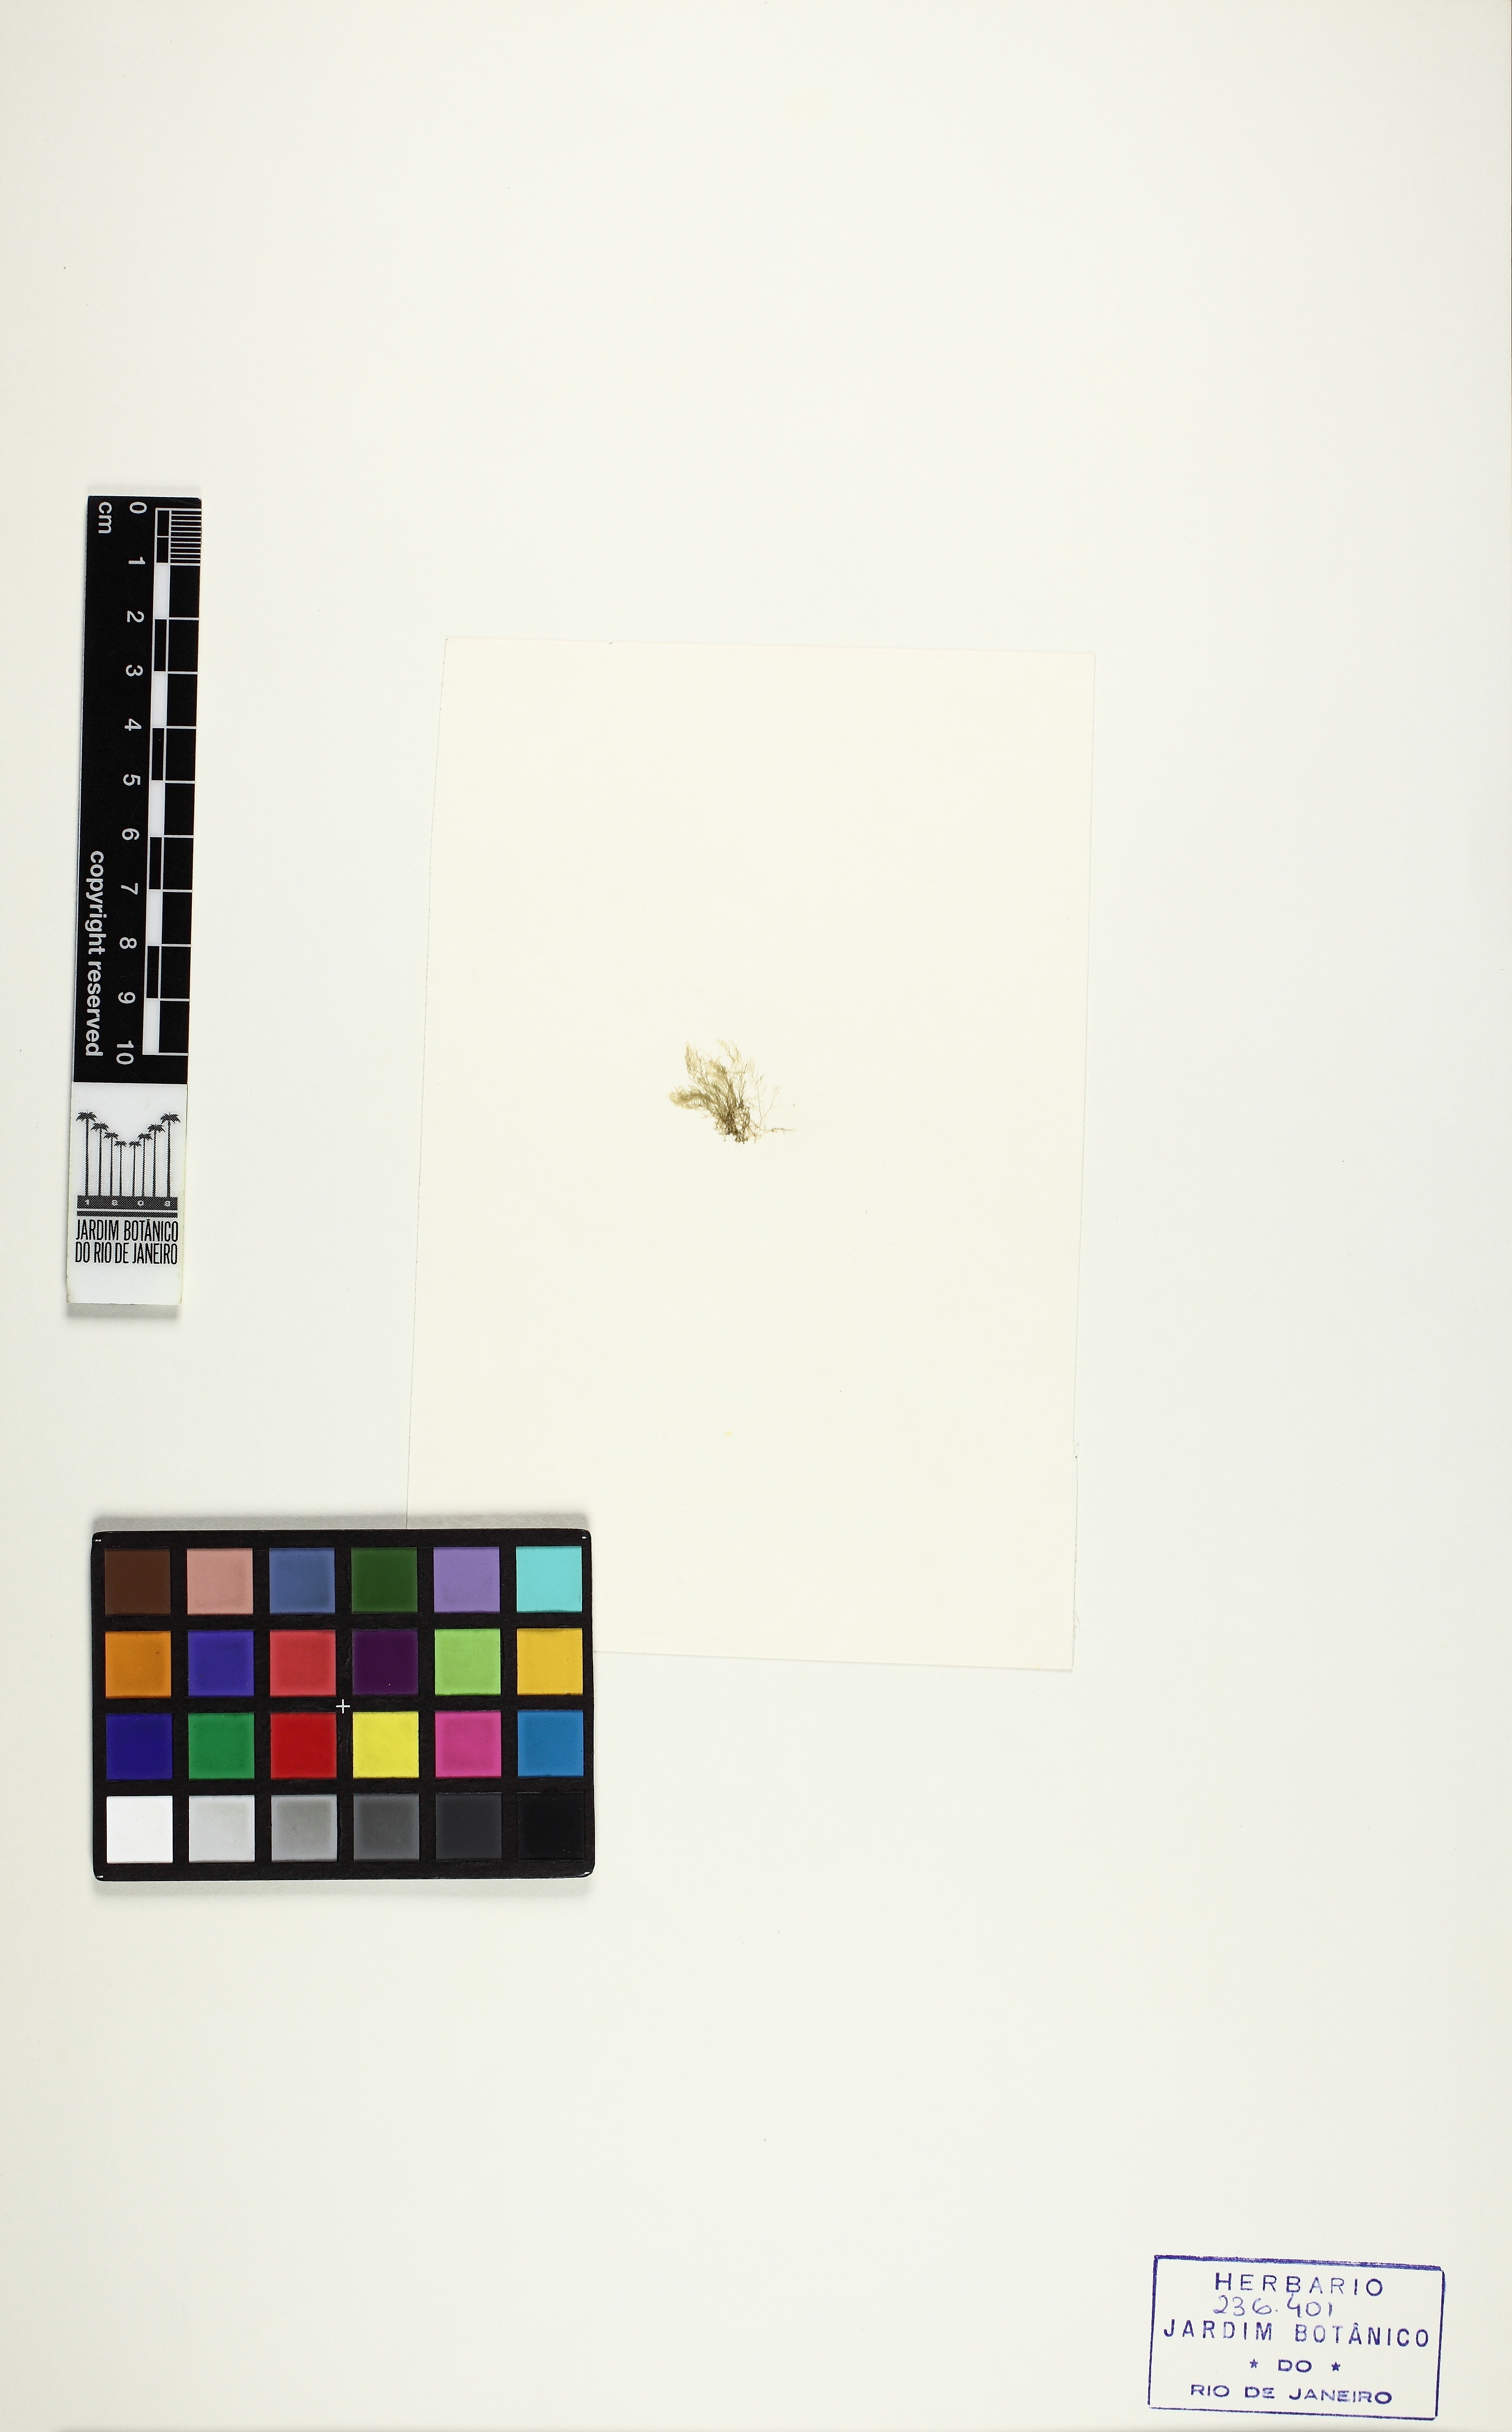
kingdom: Plantae
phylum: Rhodophyta
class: Florideophyceae
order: Ceramiales
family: Rhodomelaceae
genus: Bostrychia
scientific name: Bostrychia radicans
